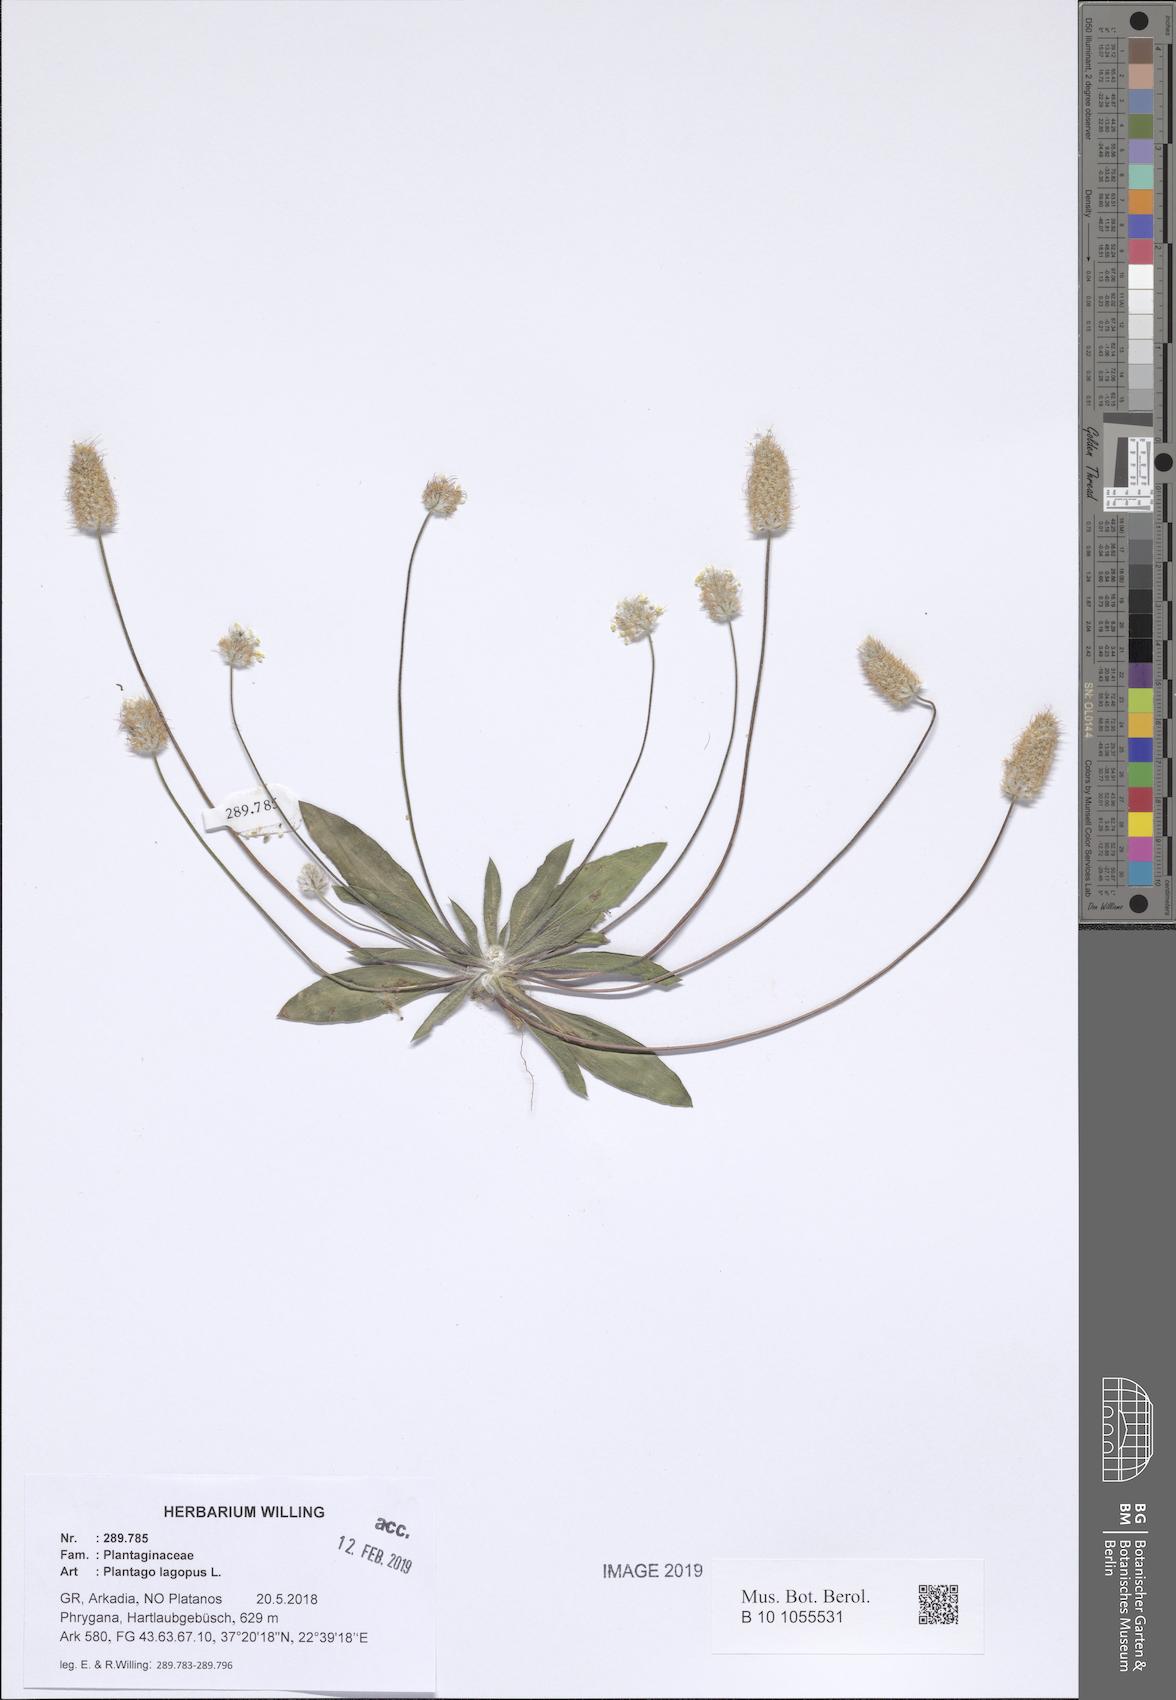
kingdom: Plantae
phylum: Tracheophyta
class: Magnoliopsida
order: Lamiales
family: Plantaginaceae
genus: Plantago
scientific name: Plantago lagopus
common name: Hare-foot plantain
